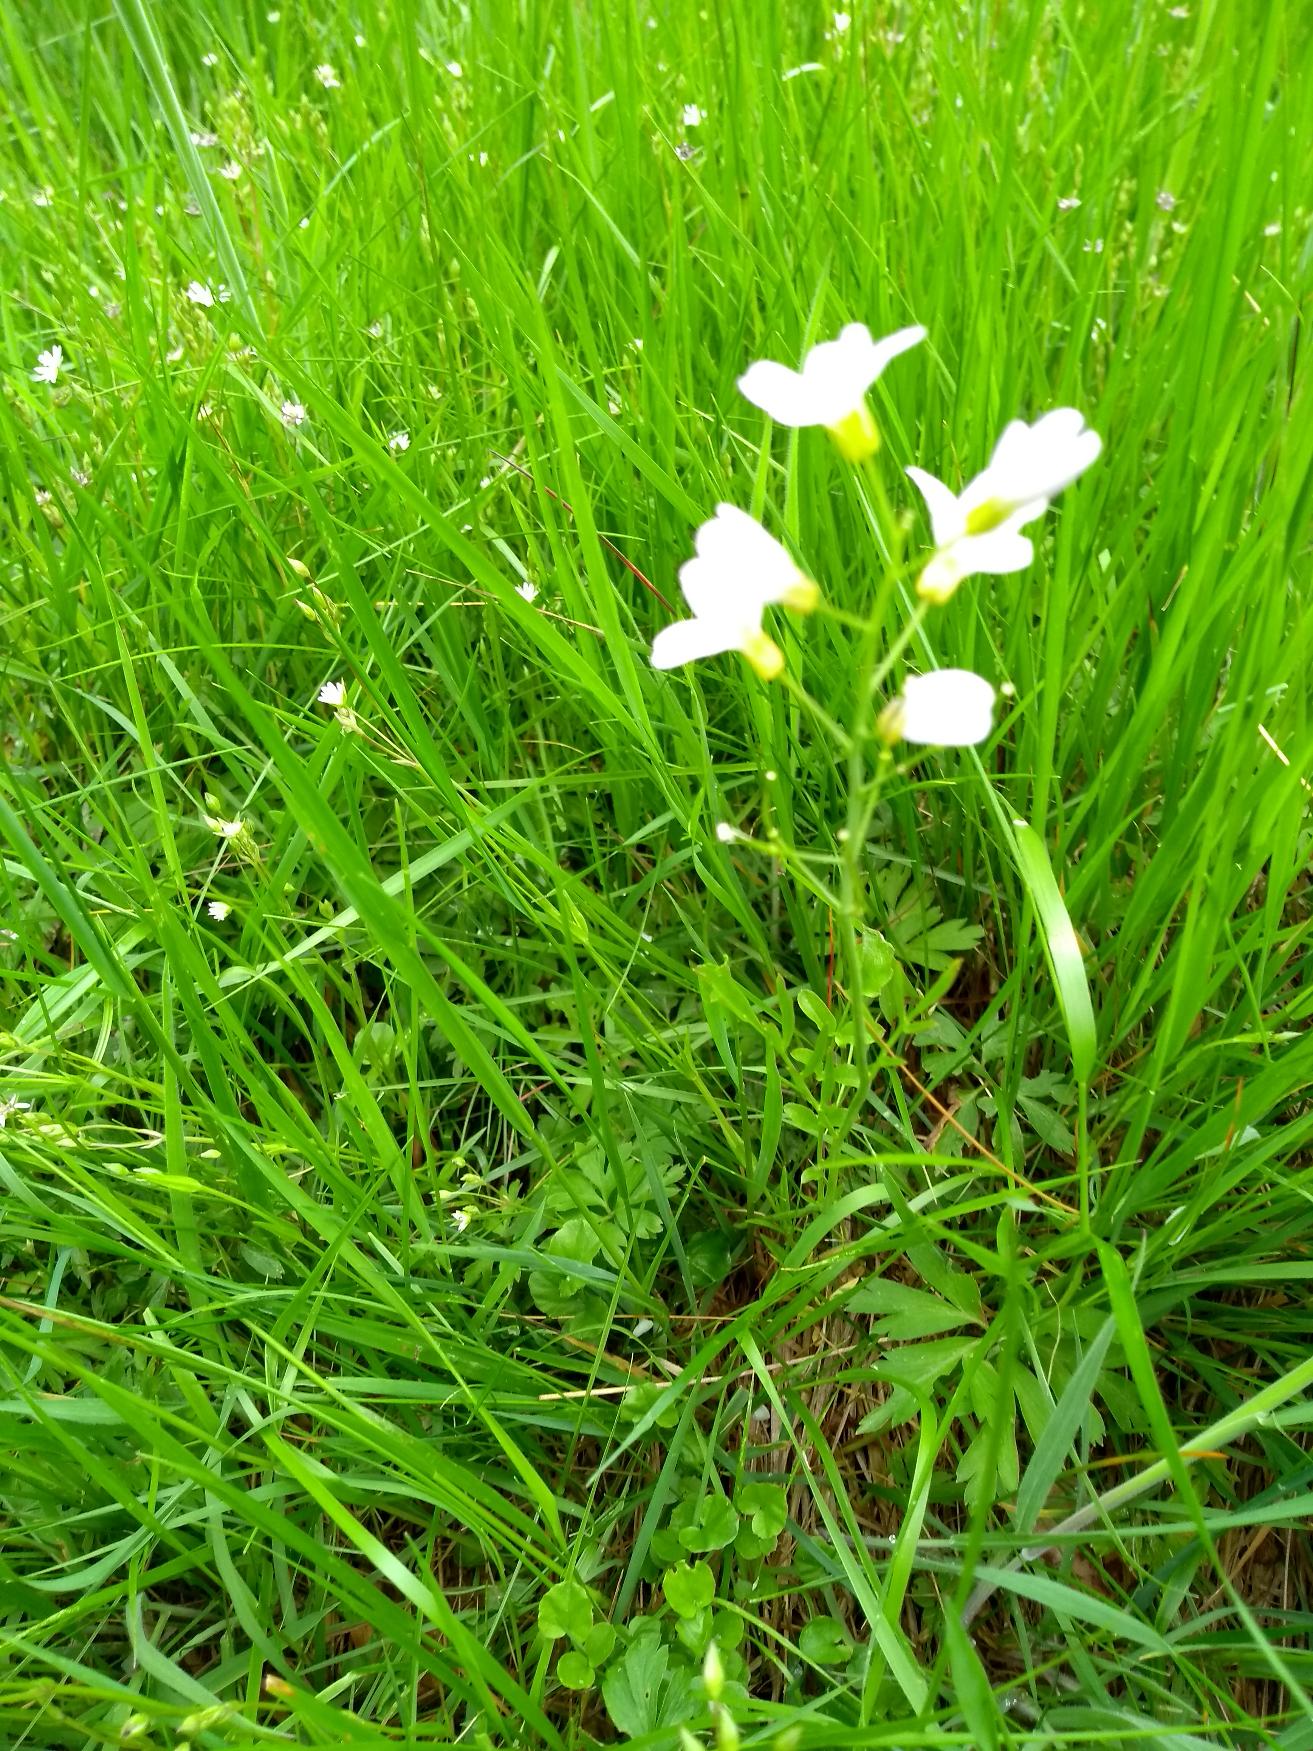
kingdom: Plantae
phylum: Tracheophyta
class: Magnoliopsida
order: Brassicales
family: Brassicaceae
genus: Cardamine
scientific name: Cardamine pratensis
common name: Engkarse
